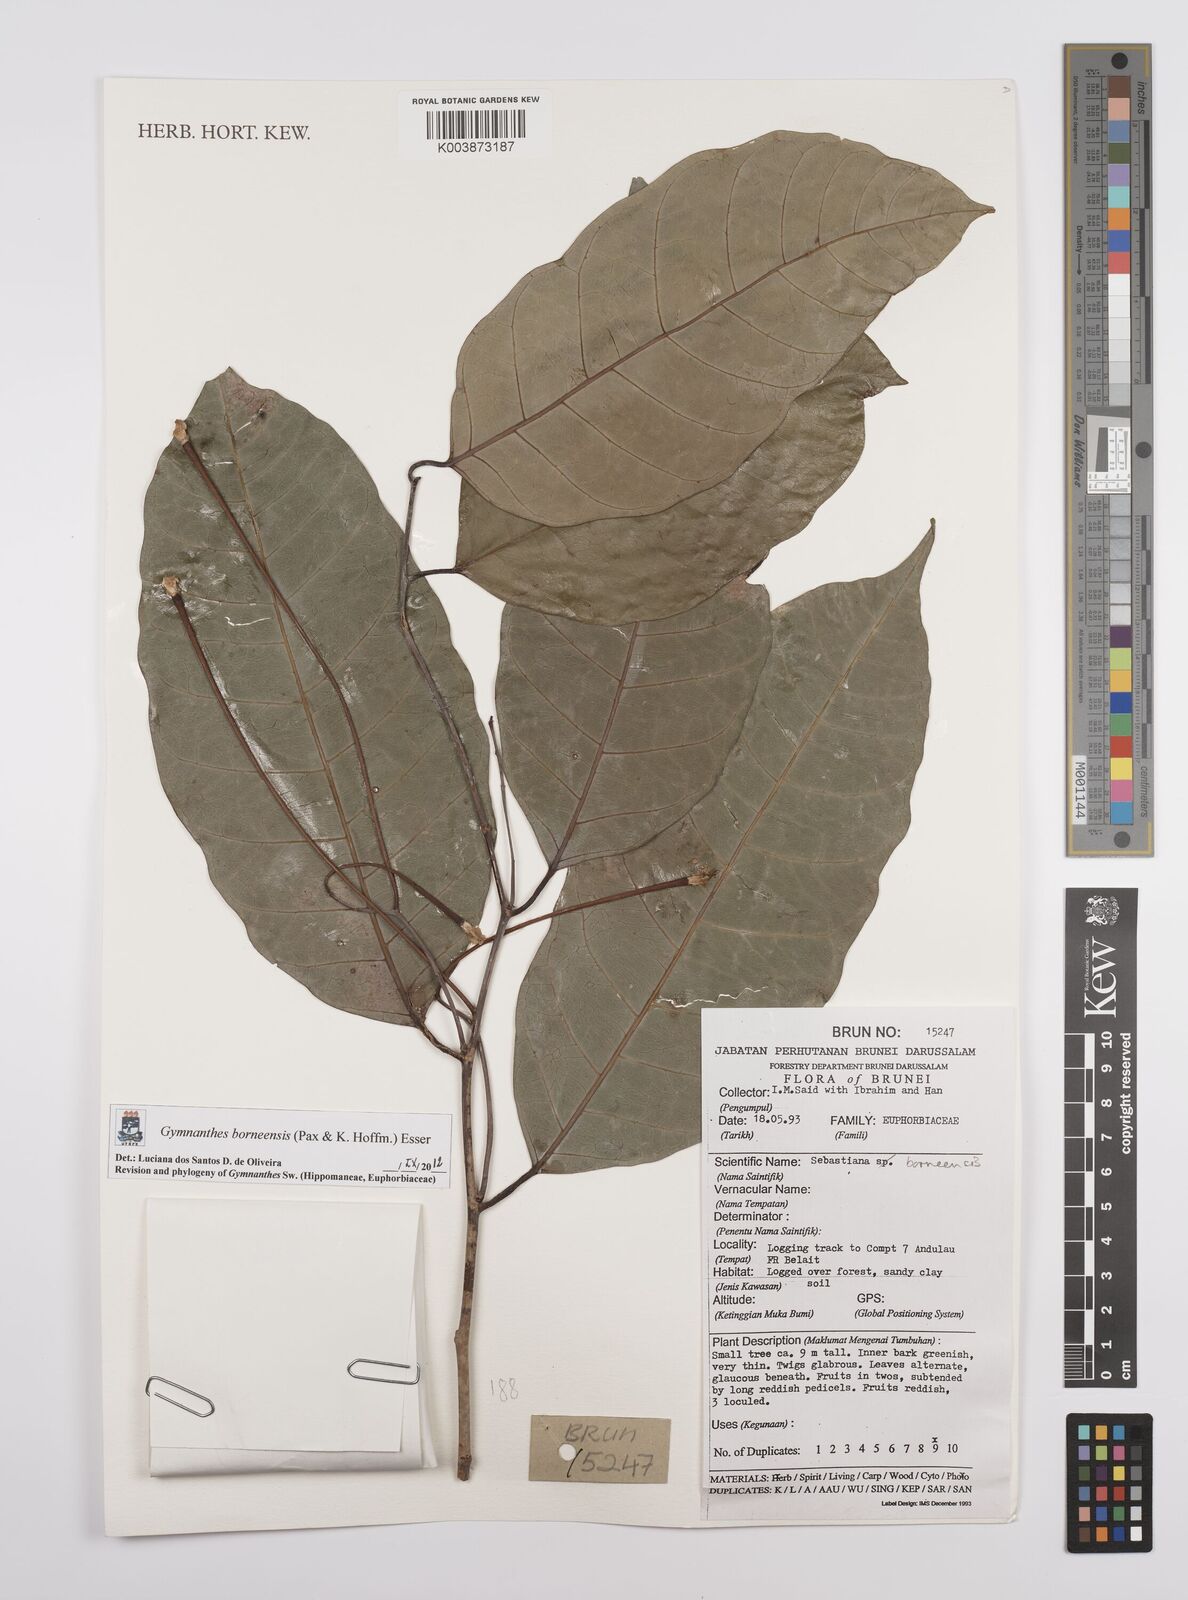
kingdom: Plantae
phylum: Tracheophyta
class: Magnoliopsida
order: Malpighiales
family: Euphorbiaceae
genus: Gymnanthes
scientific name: Gymnanthes borneensis
